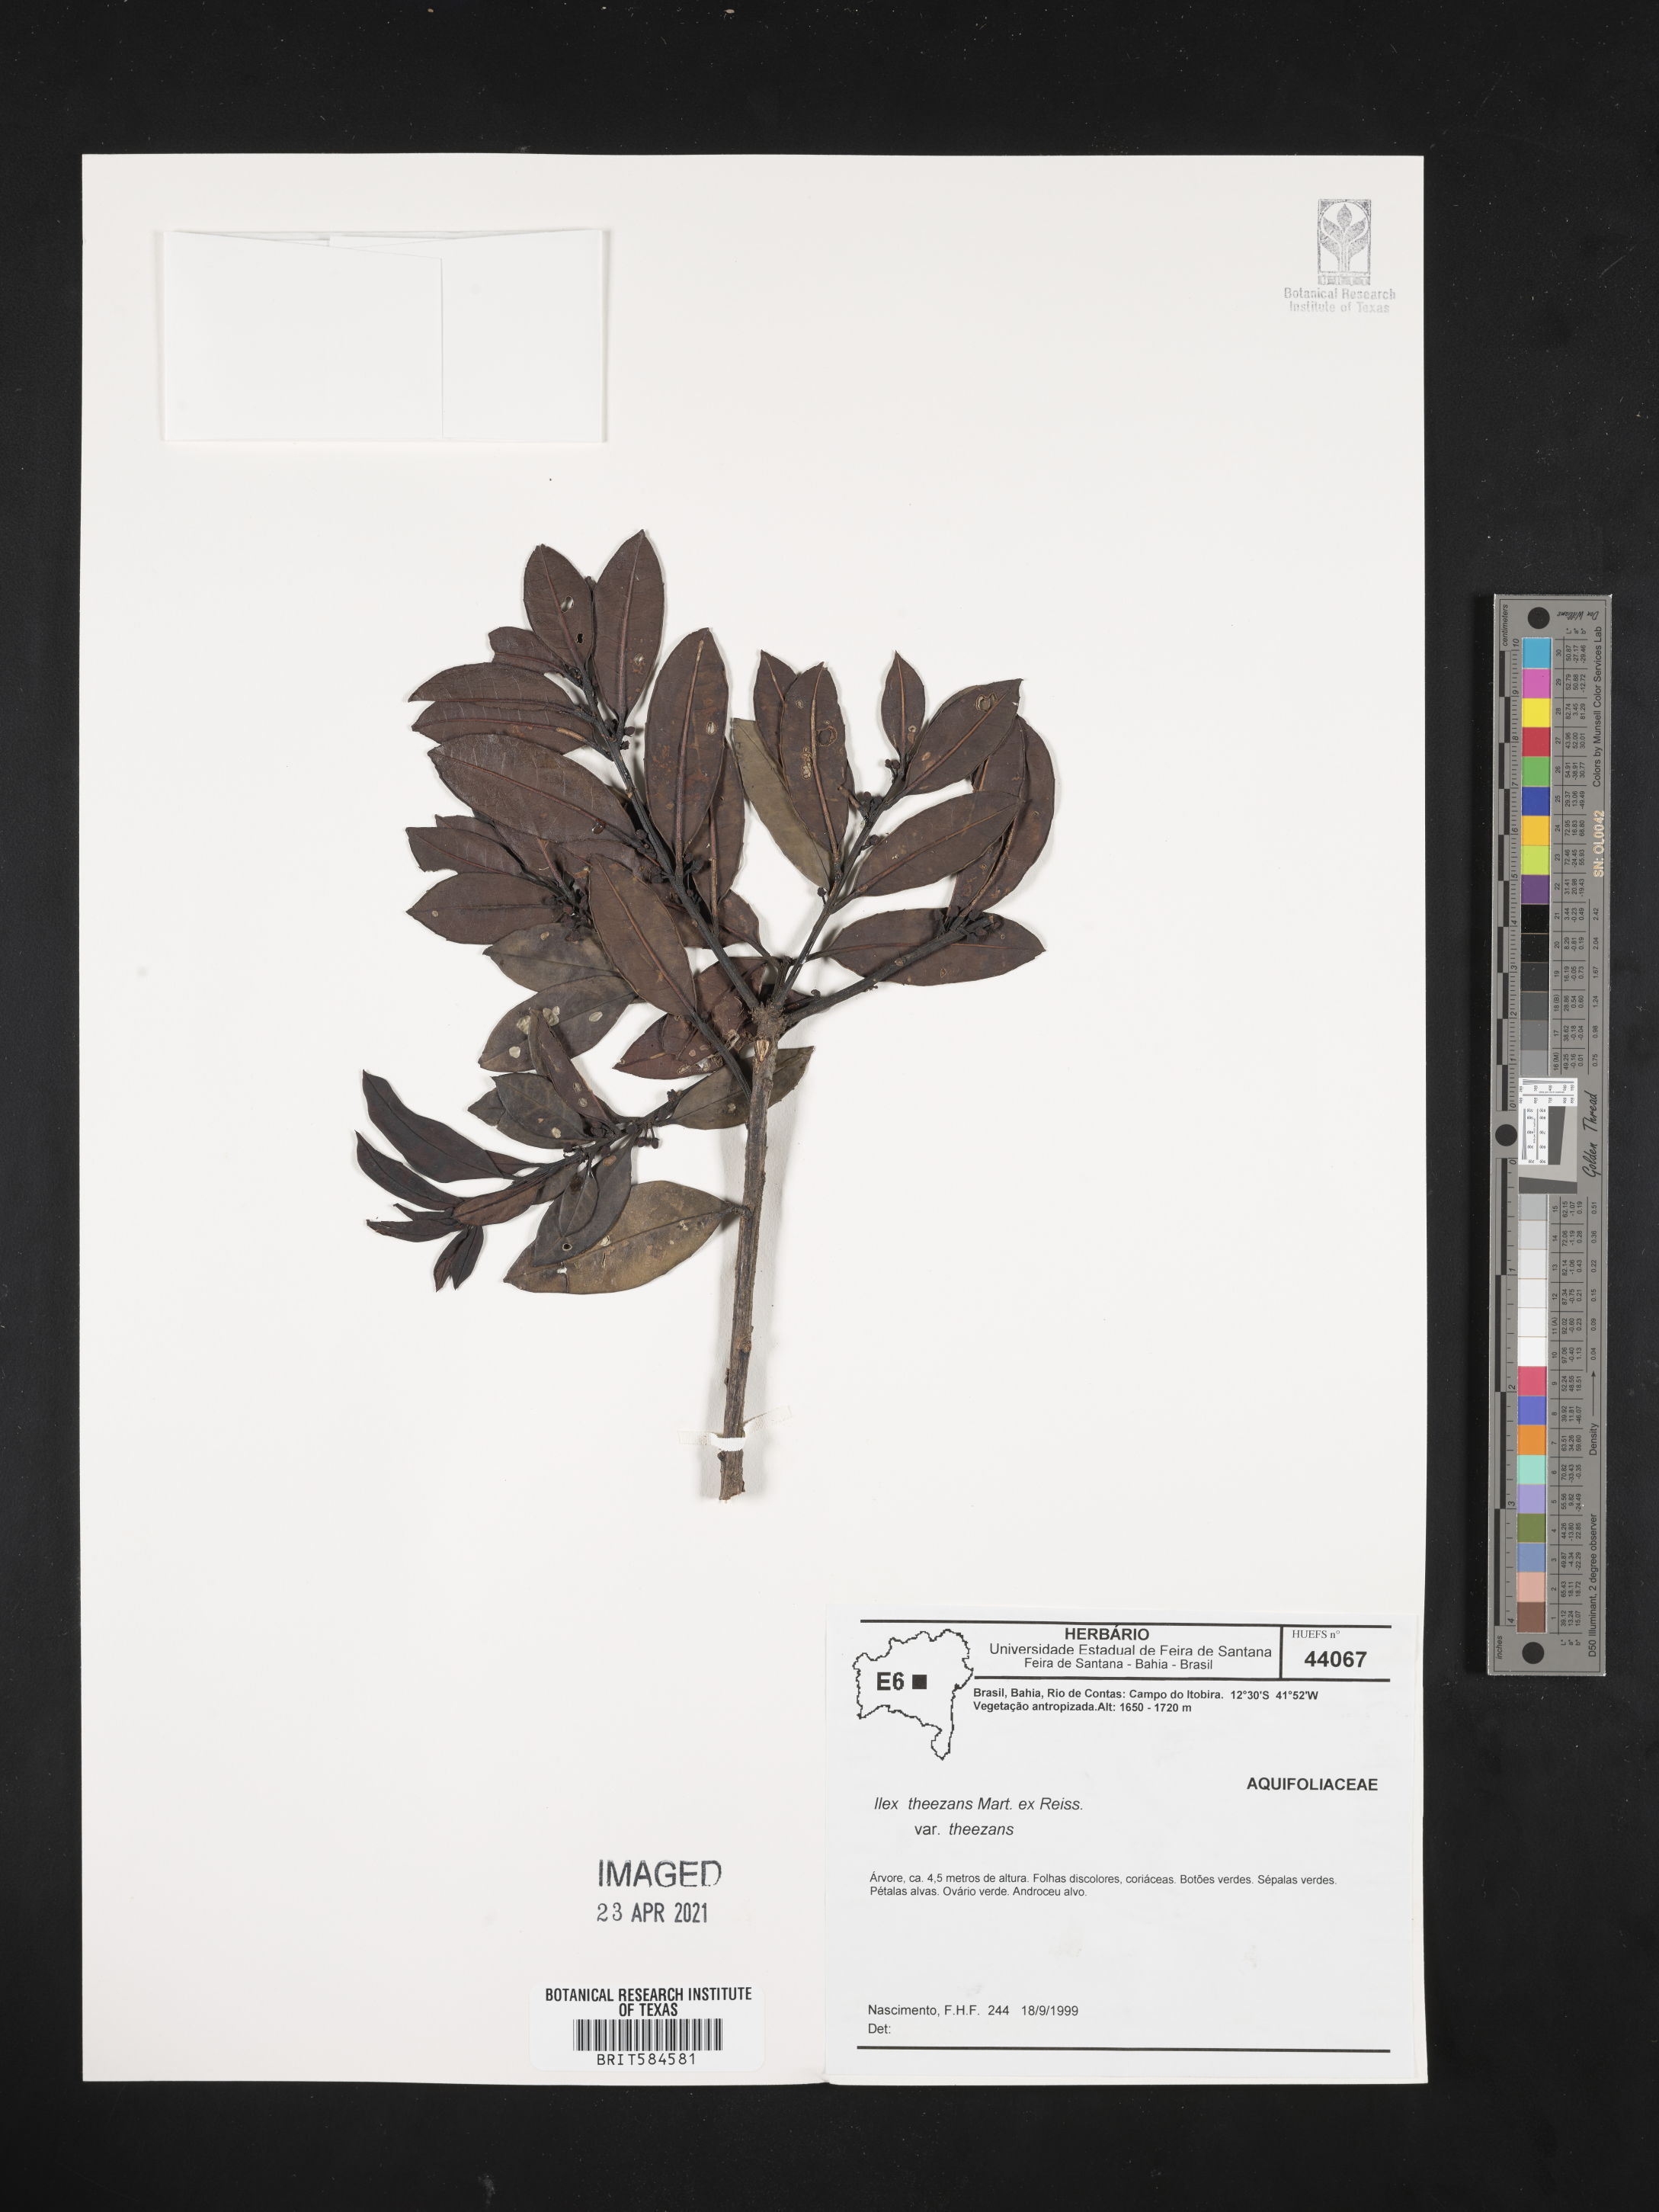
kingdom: Plantae
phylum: Tracheophyta
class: Magnoliopsida
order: Aquifoliales
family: Aquifoliaceae
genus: Ilex
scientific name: Ilex theezans
